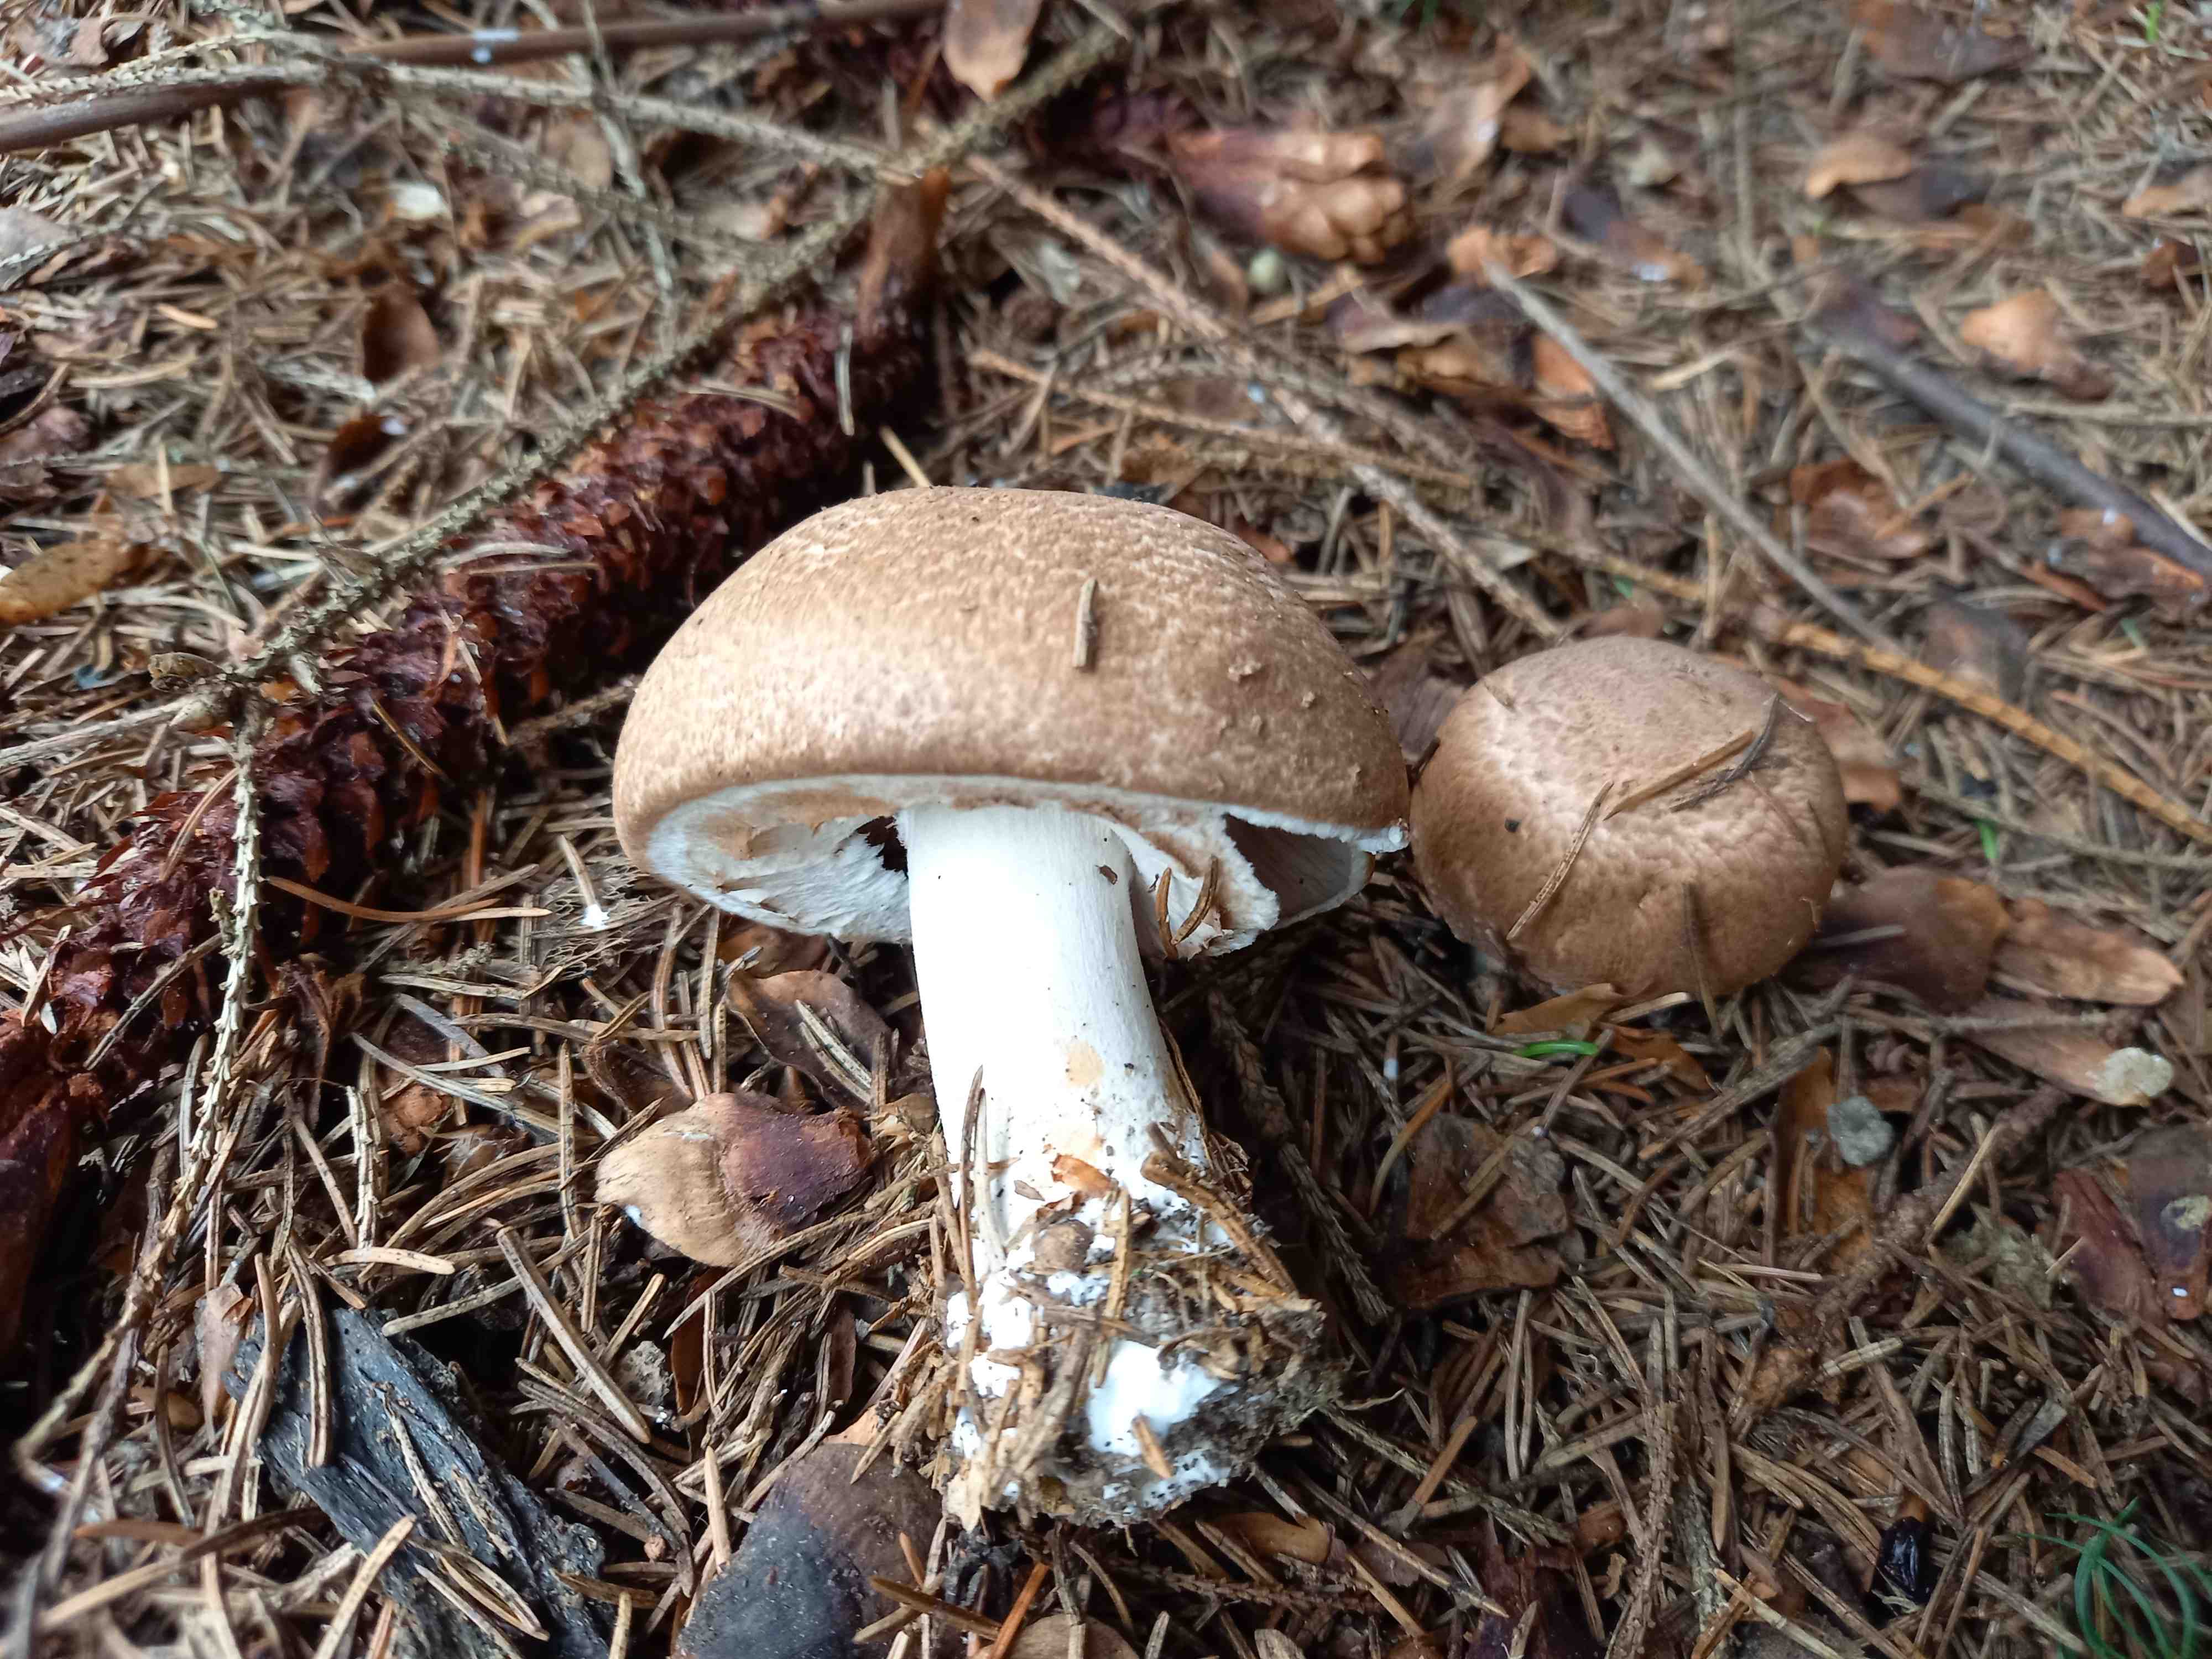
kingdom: Fungi
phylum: Basidiomycota
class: Agaricomycetes
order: Agaricales
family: Agaricaceae
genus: Agaricus
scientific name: Agaricus
